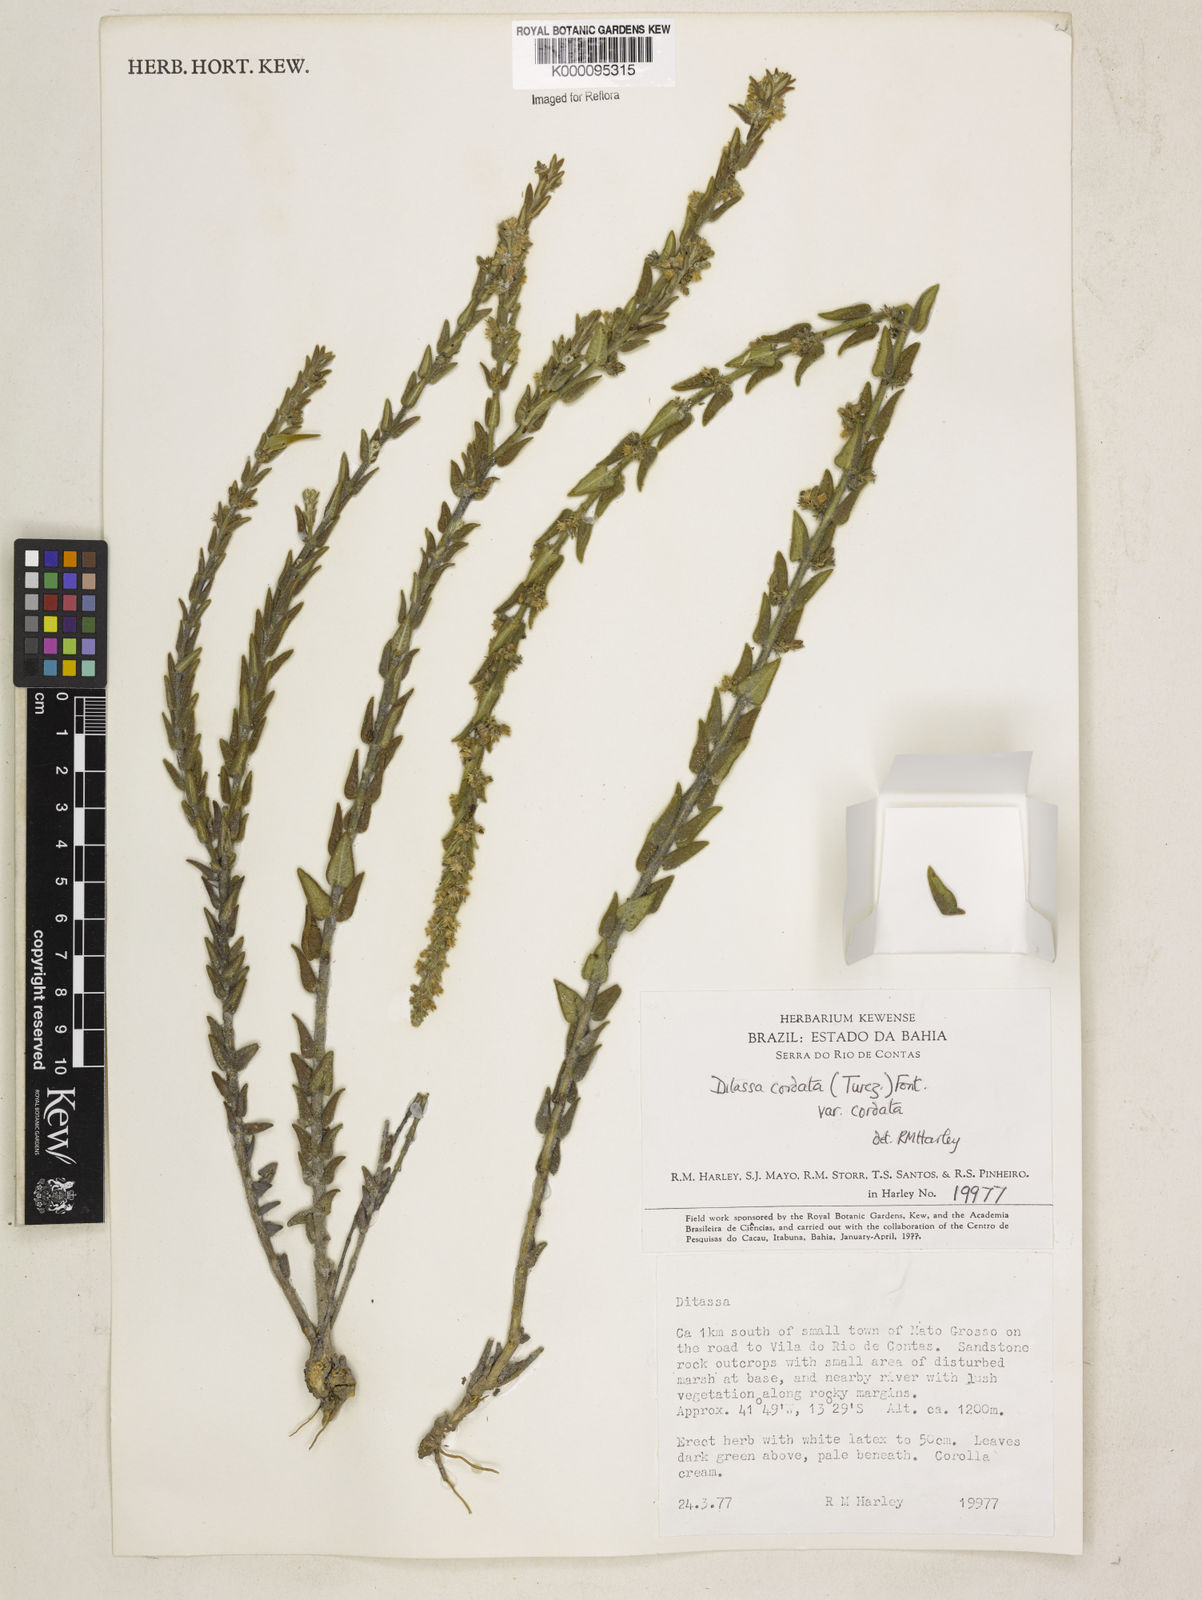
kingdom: Plantae
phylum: Tracheophyta
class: Magnoliopsida
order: Gentianales
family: Apocynaceae
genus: Minaria
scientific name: Minaria cordata
